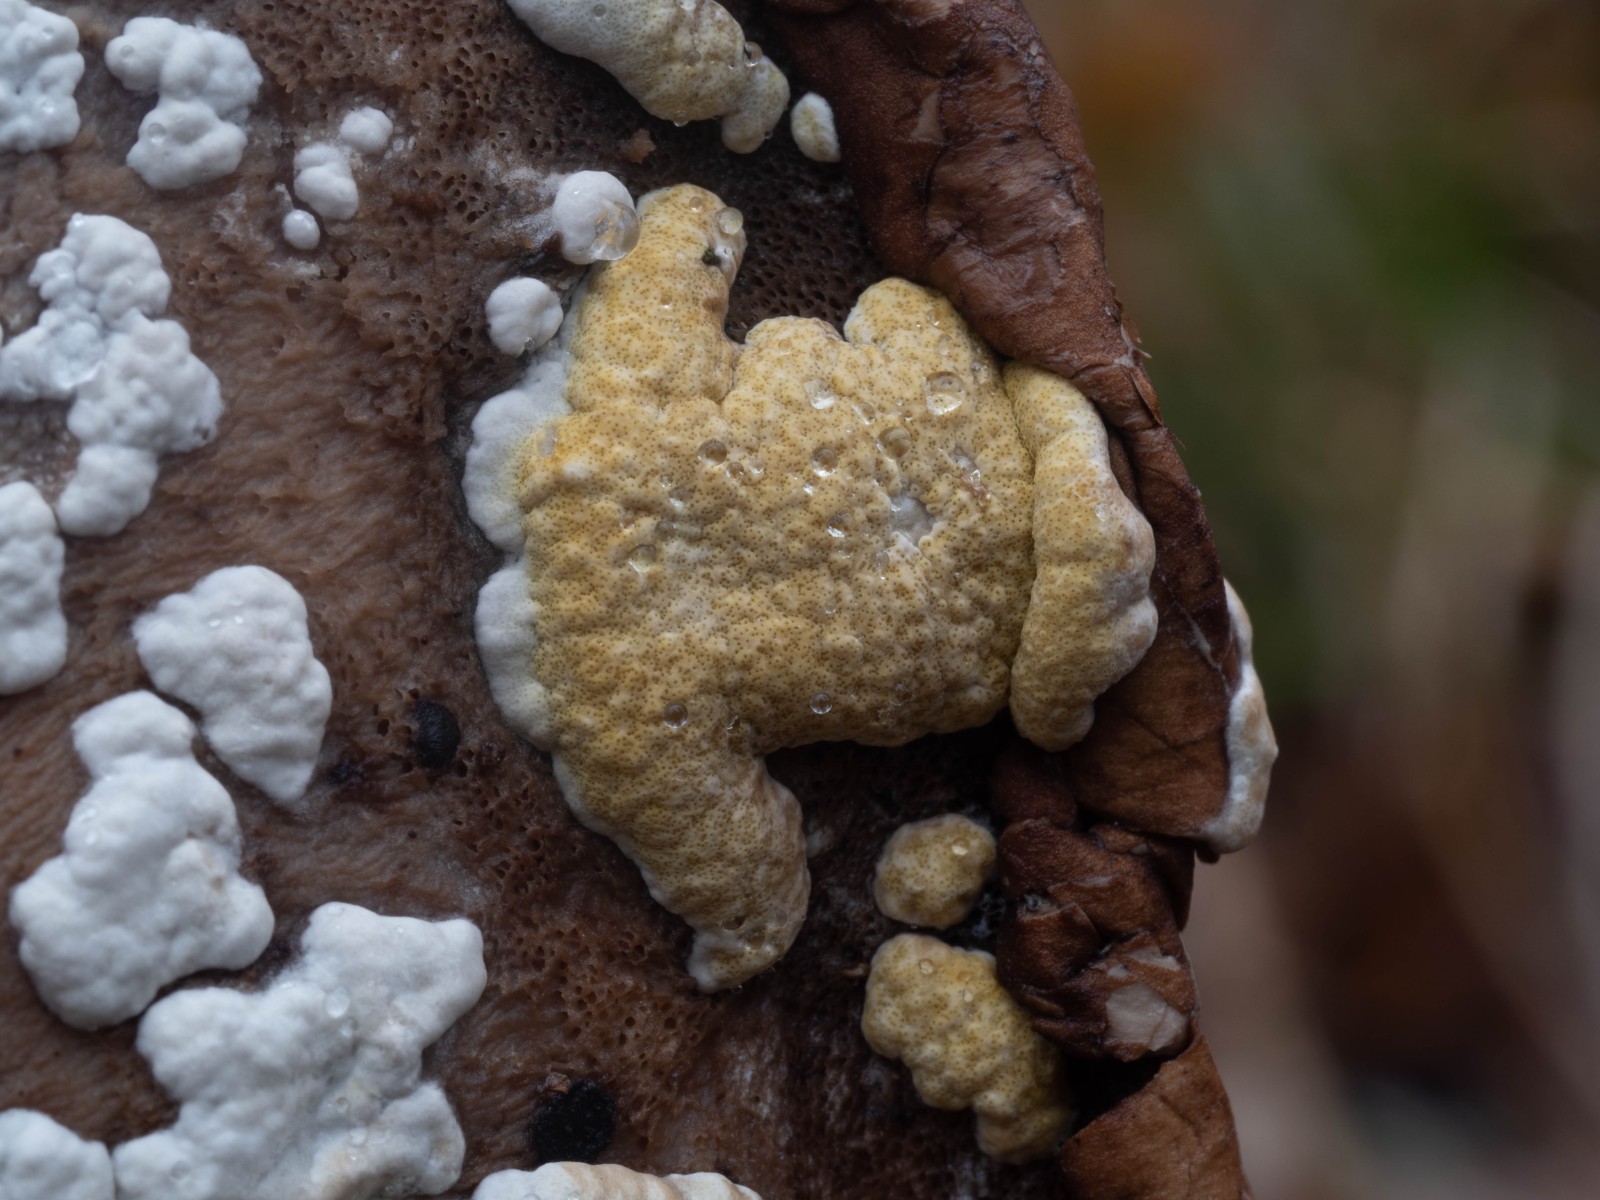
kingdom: Fungi
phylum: Ascomycota
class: Sordariomycetes
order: Hypocreales
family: Hypocreaceae
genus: Trichoderma
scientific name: Trichoderma pulvinatum
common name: snyltende kødkerne
